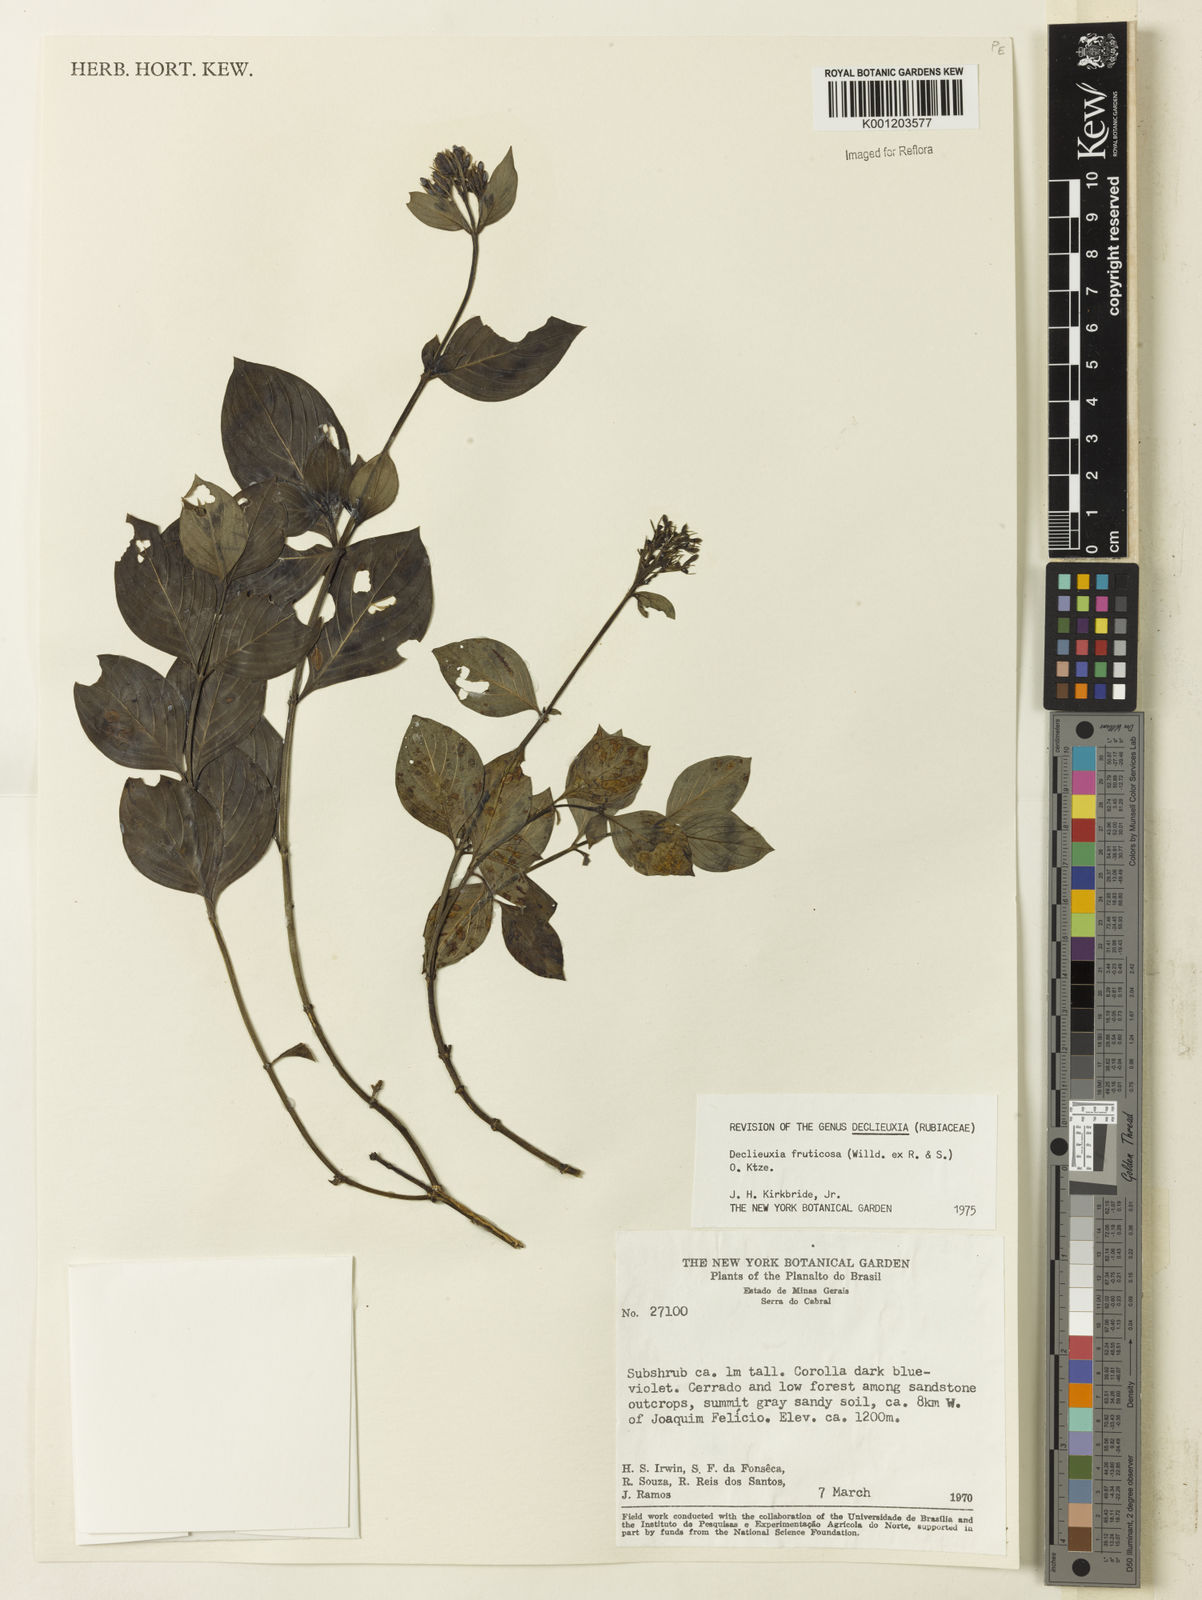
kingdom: Plantae
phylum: Tracheophyta
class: Magnoliopsida
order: Gentianales
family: Rubiaceae
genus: Declieuxia
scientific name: Declieuxia fruticosa
